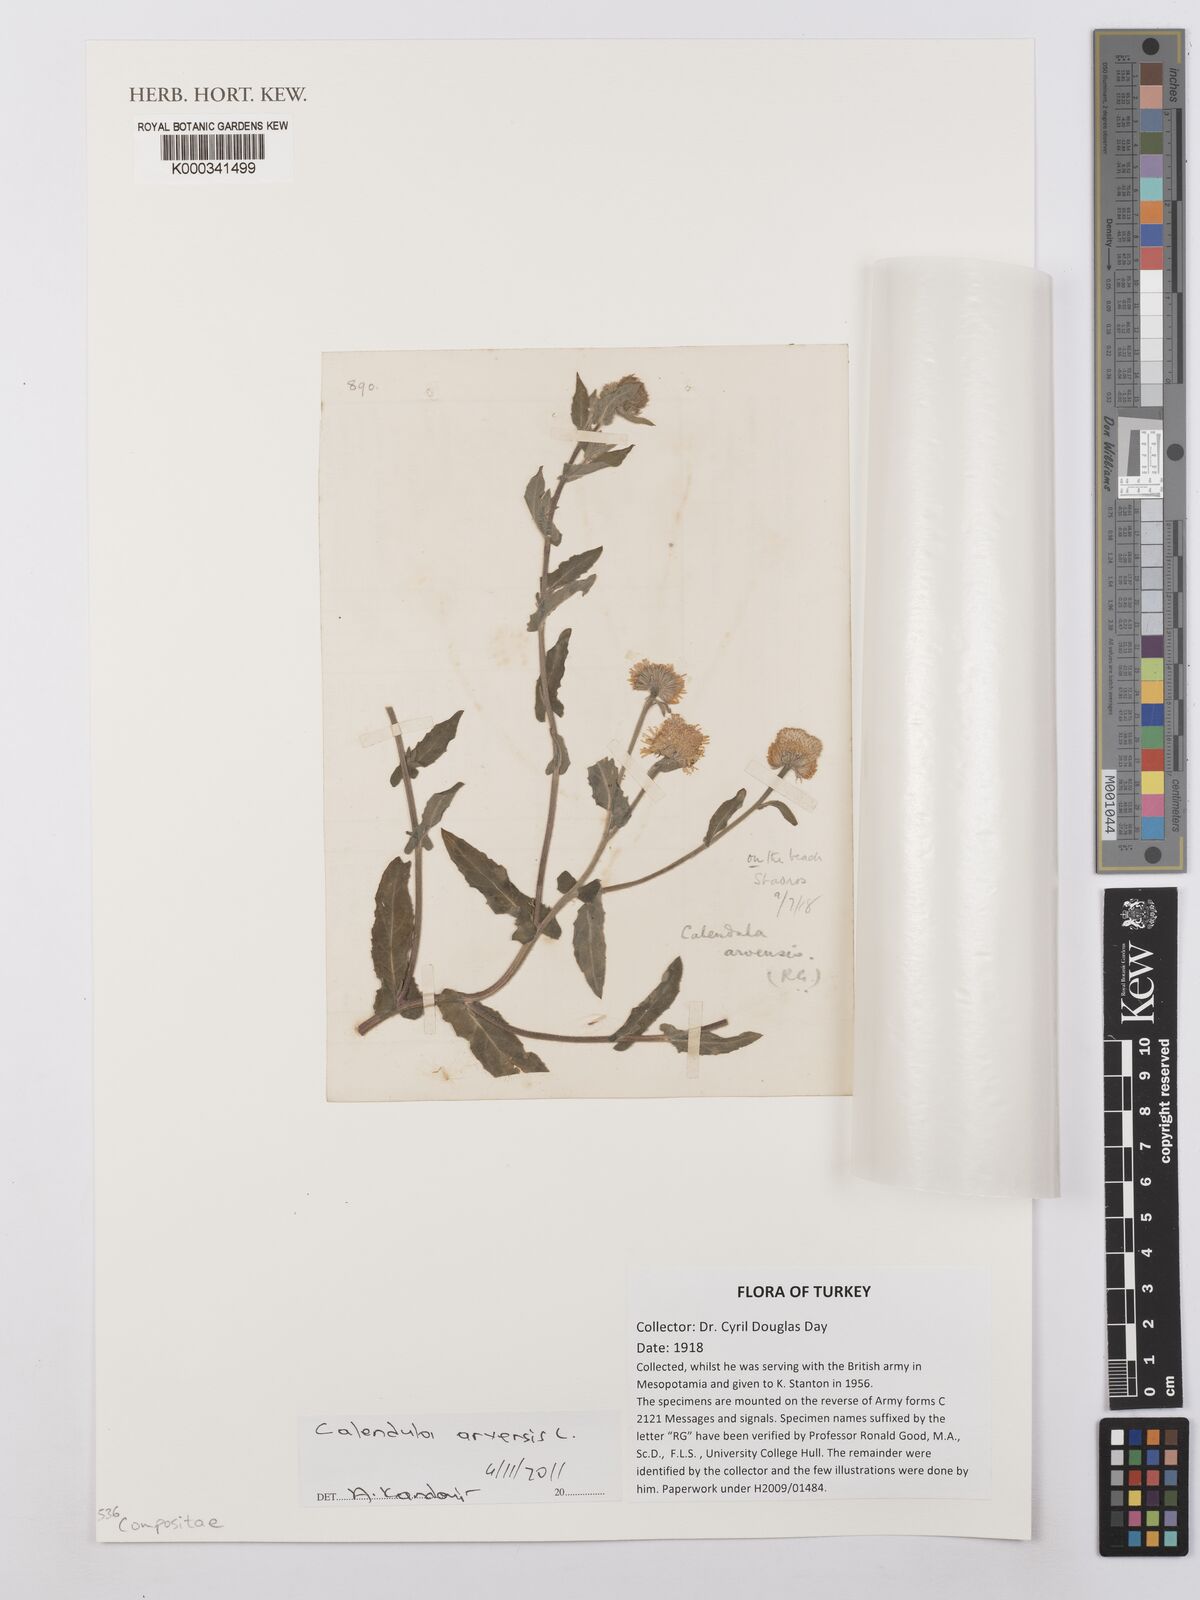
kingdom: Plantae
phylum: Tracheophyta
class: Magnoliopsida
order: Asterales
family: Asteraceae
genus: Calendula
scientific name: Calendula arvensis
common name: Field marigold
